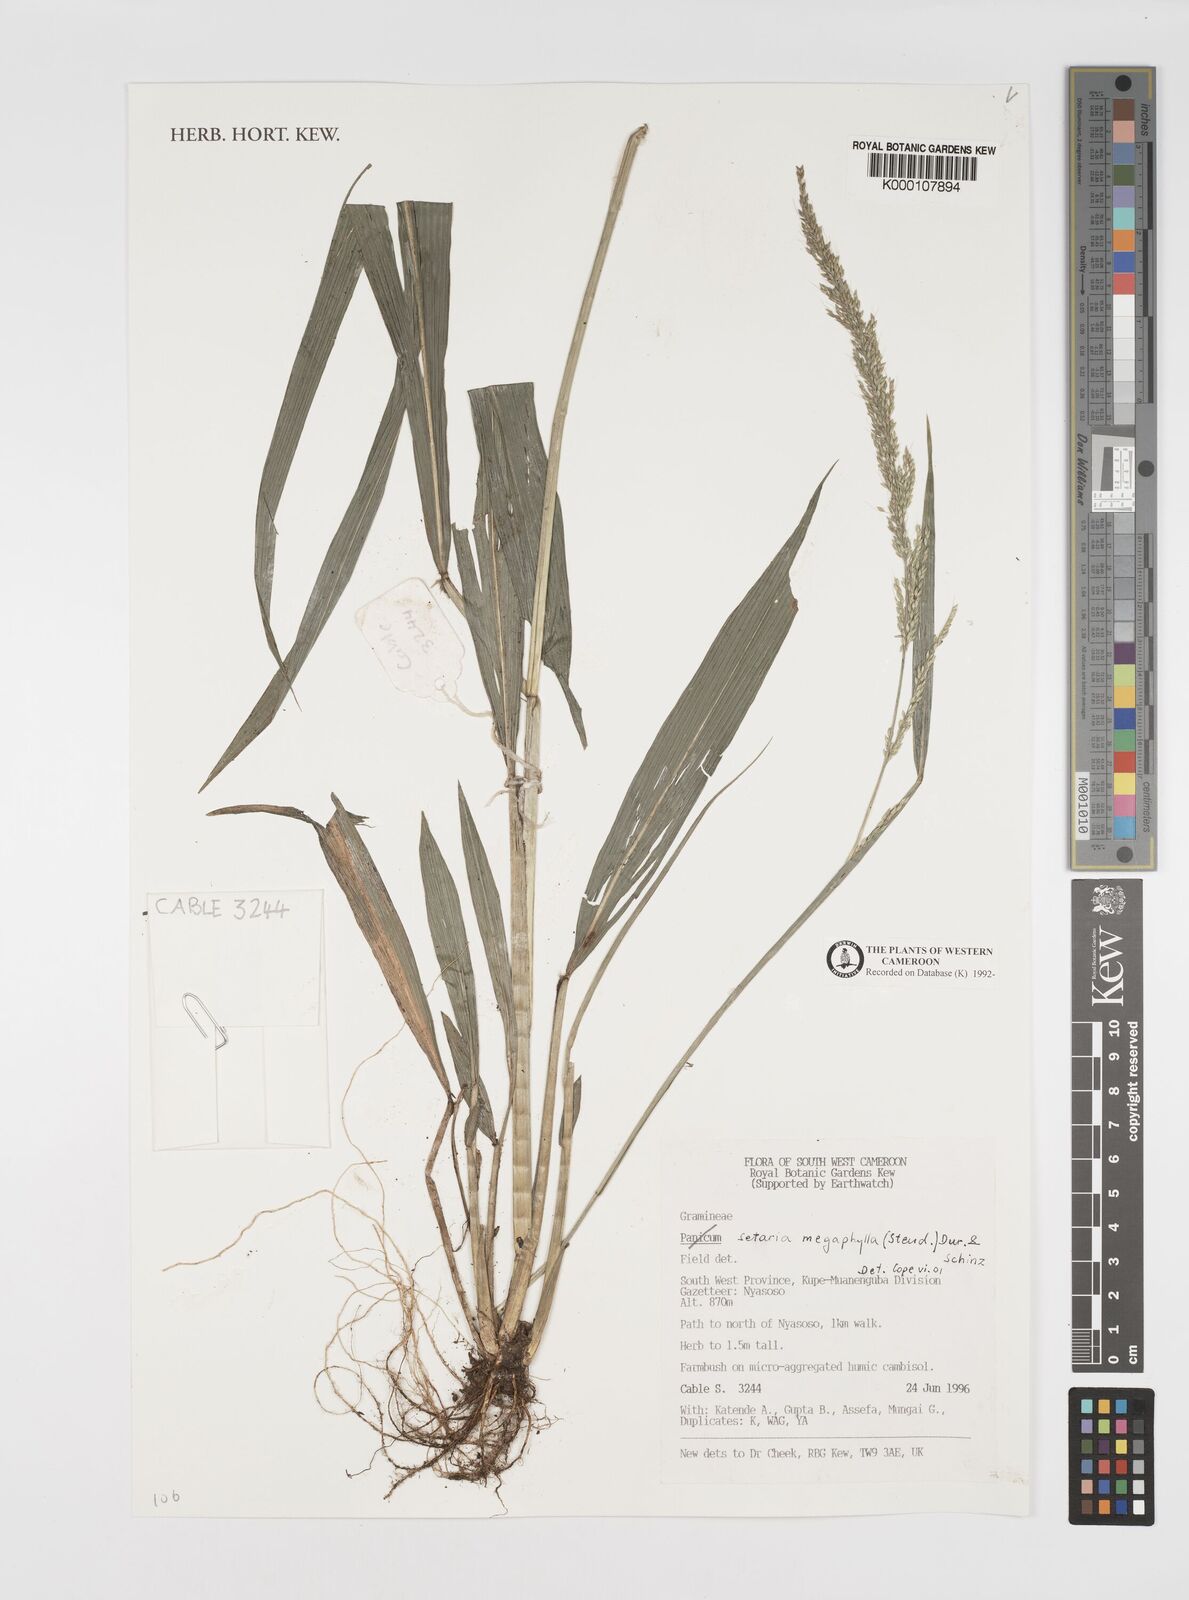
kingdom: Plantae
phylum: Tracheophyta
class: Liliopsida
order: Poales
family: Poaceae
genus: Setaria
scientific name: Setaria megaphylla
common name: Bigleaf bristlegrass
